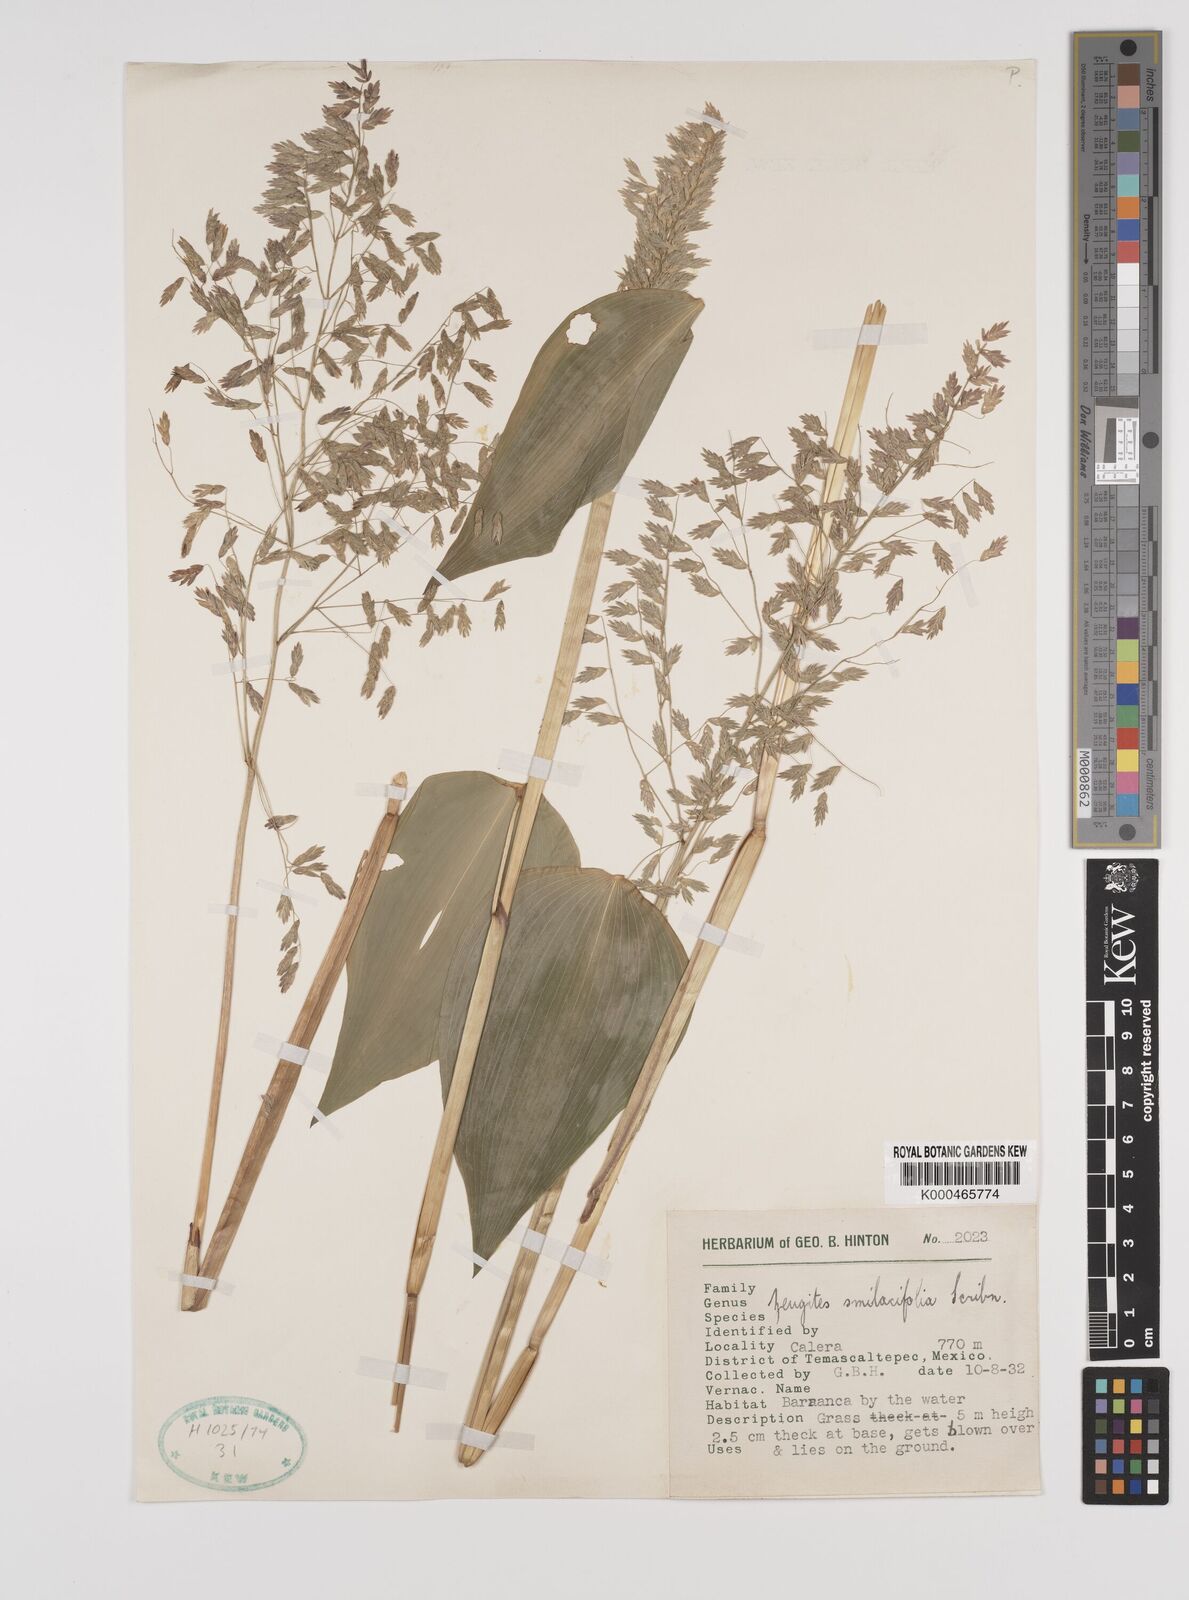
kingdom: Plantae
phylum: Tracheophyta
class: Liliopsida
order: Poales
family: Poaceae
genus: Zeugites
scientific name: Zeugites smilacifolius
